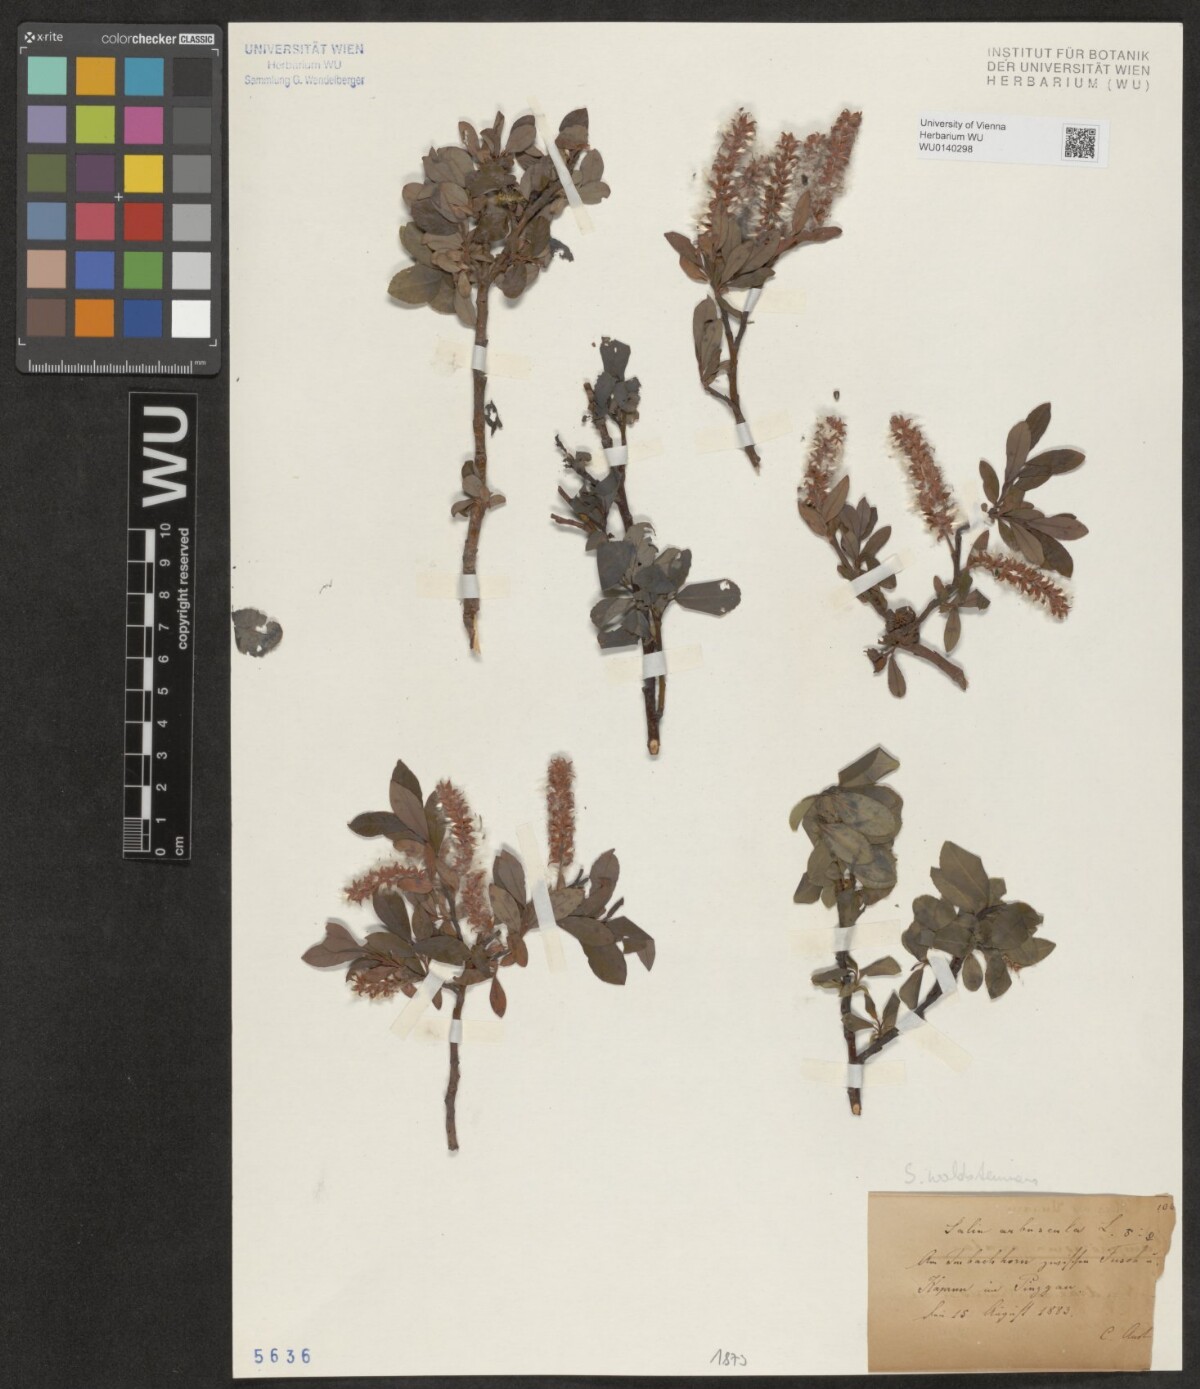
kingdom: Plantae
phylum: Tracheophyta
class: Magnoliopsida
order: Malpighiales
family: Salicaceae
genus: Salix
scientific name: Salix waldsteiniana
